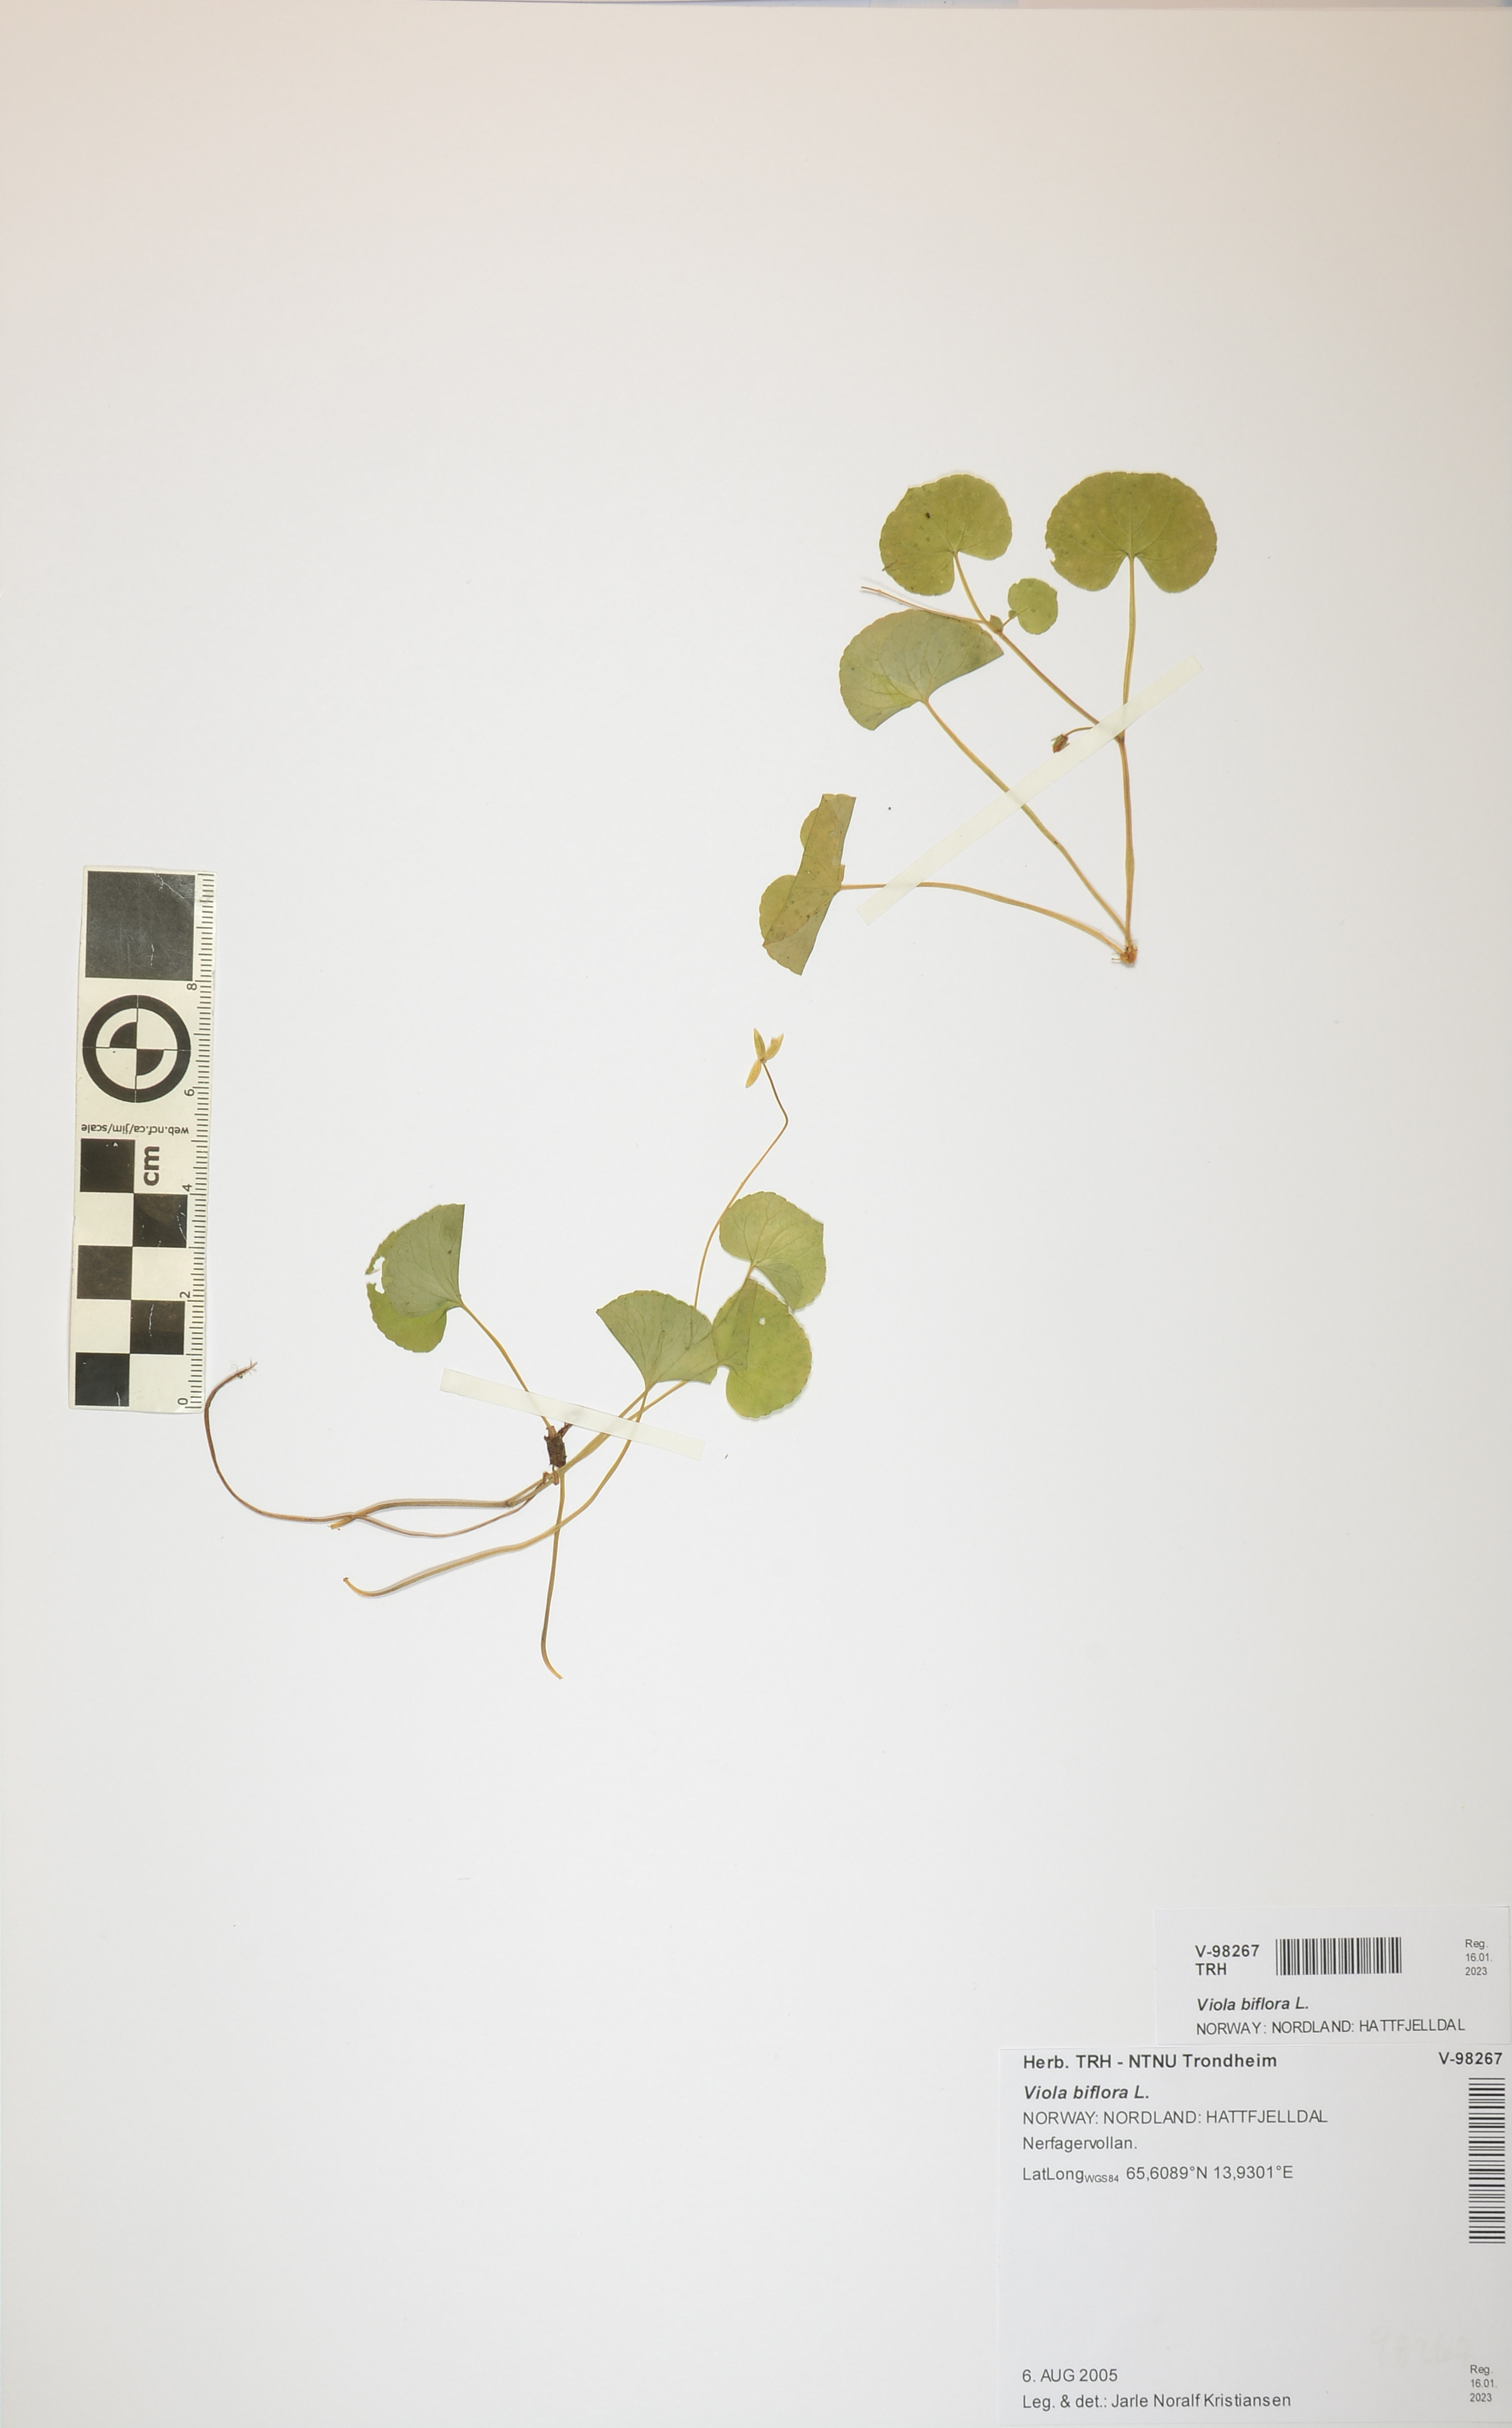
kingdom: Plantae
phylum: Tracheophyta
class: Magnoliopsida
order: Malpighiales
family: Violaceae
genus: Viola
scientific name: Viola biflora
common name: Alpine yellow violet
